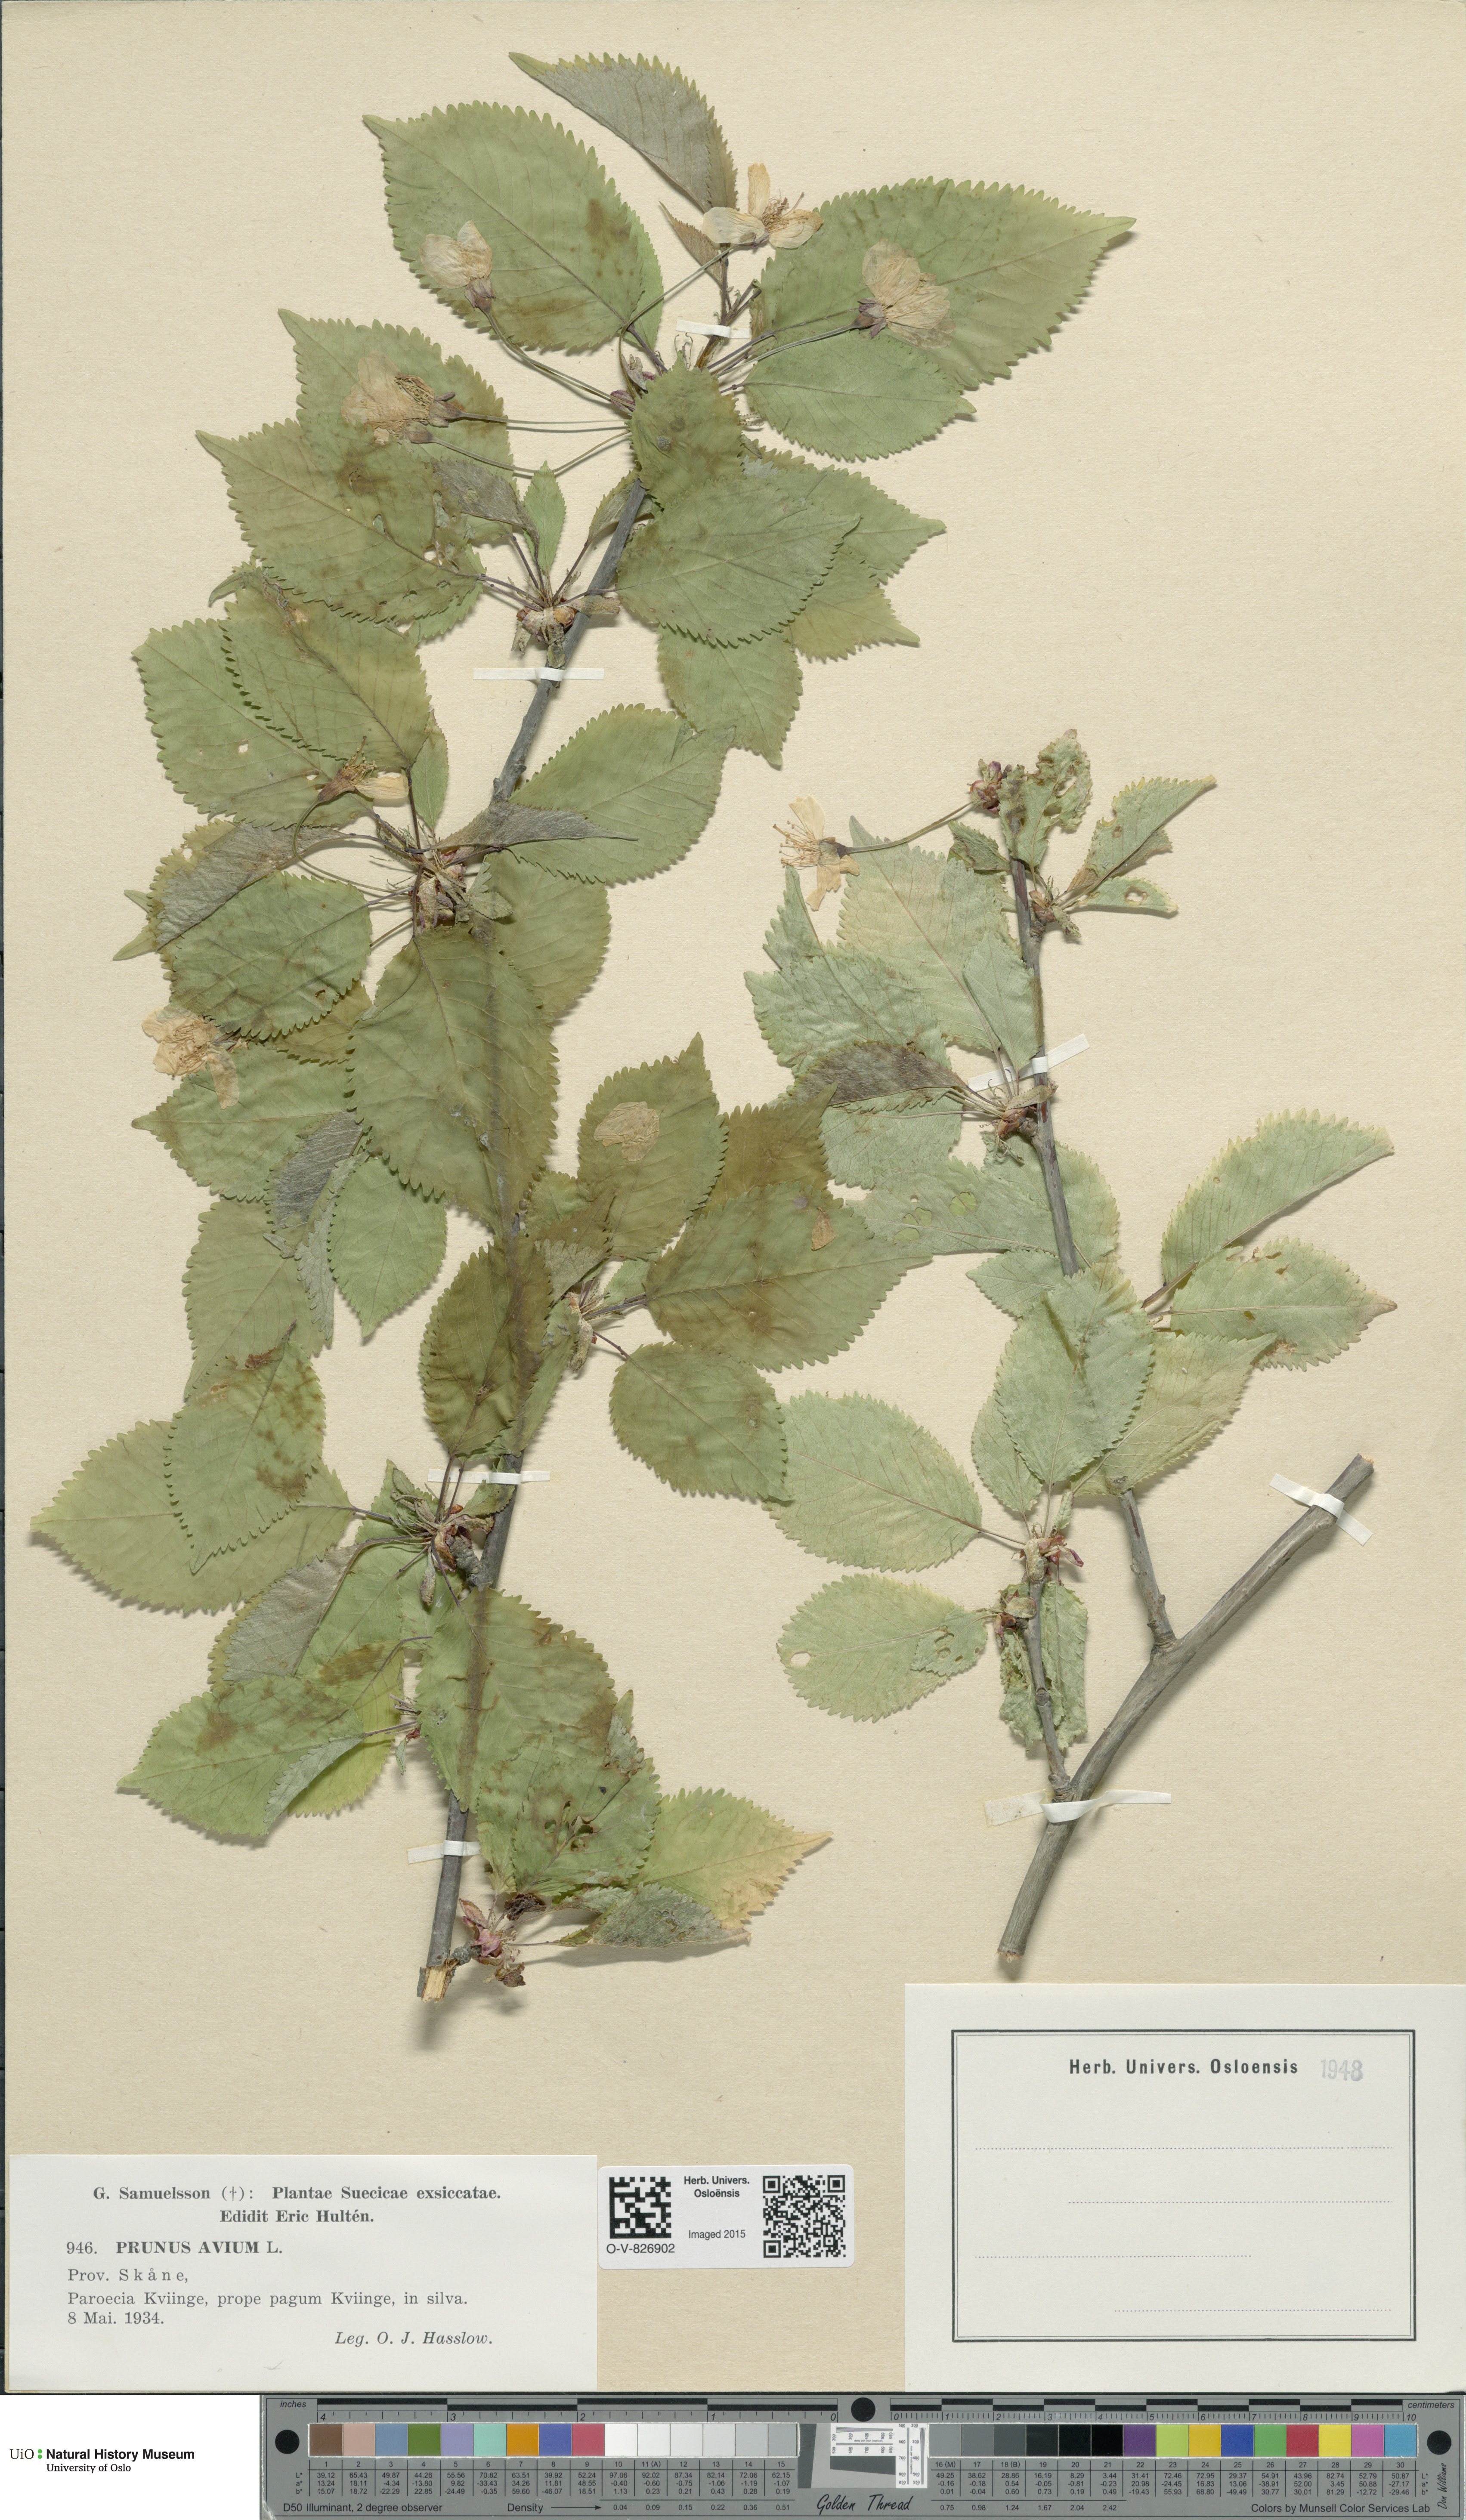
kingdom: Plantae
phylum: Tracheophyta
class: Magnoliopsida
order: Rosales
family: Rosaceae
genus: Prunus
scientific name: Prunus avium
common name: Sweet cherry
